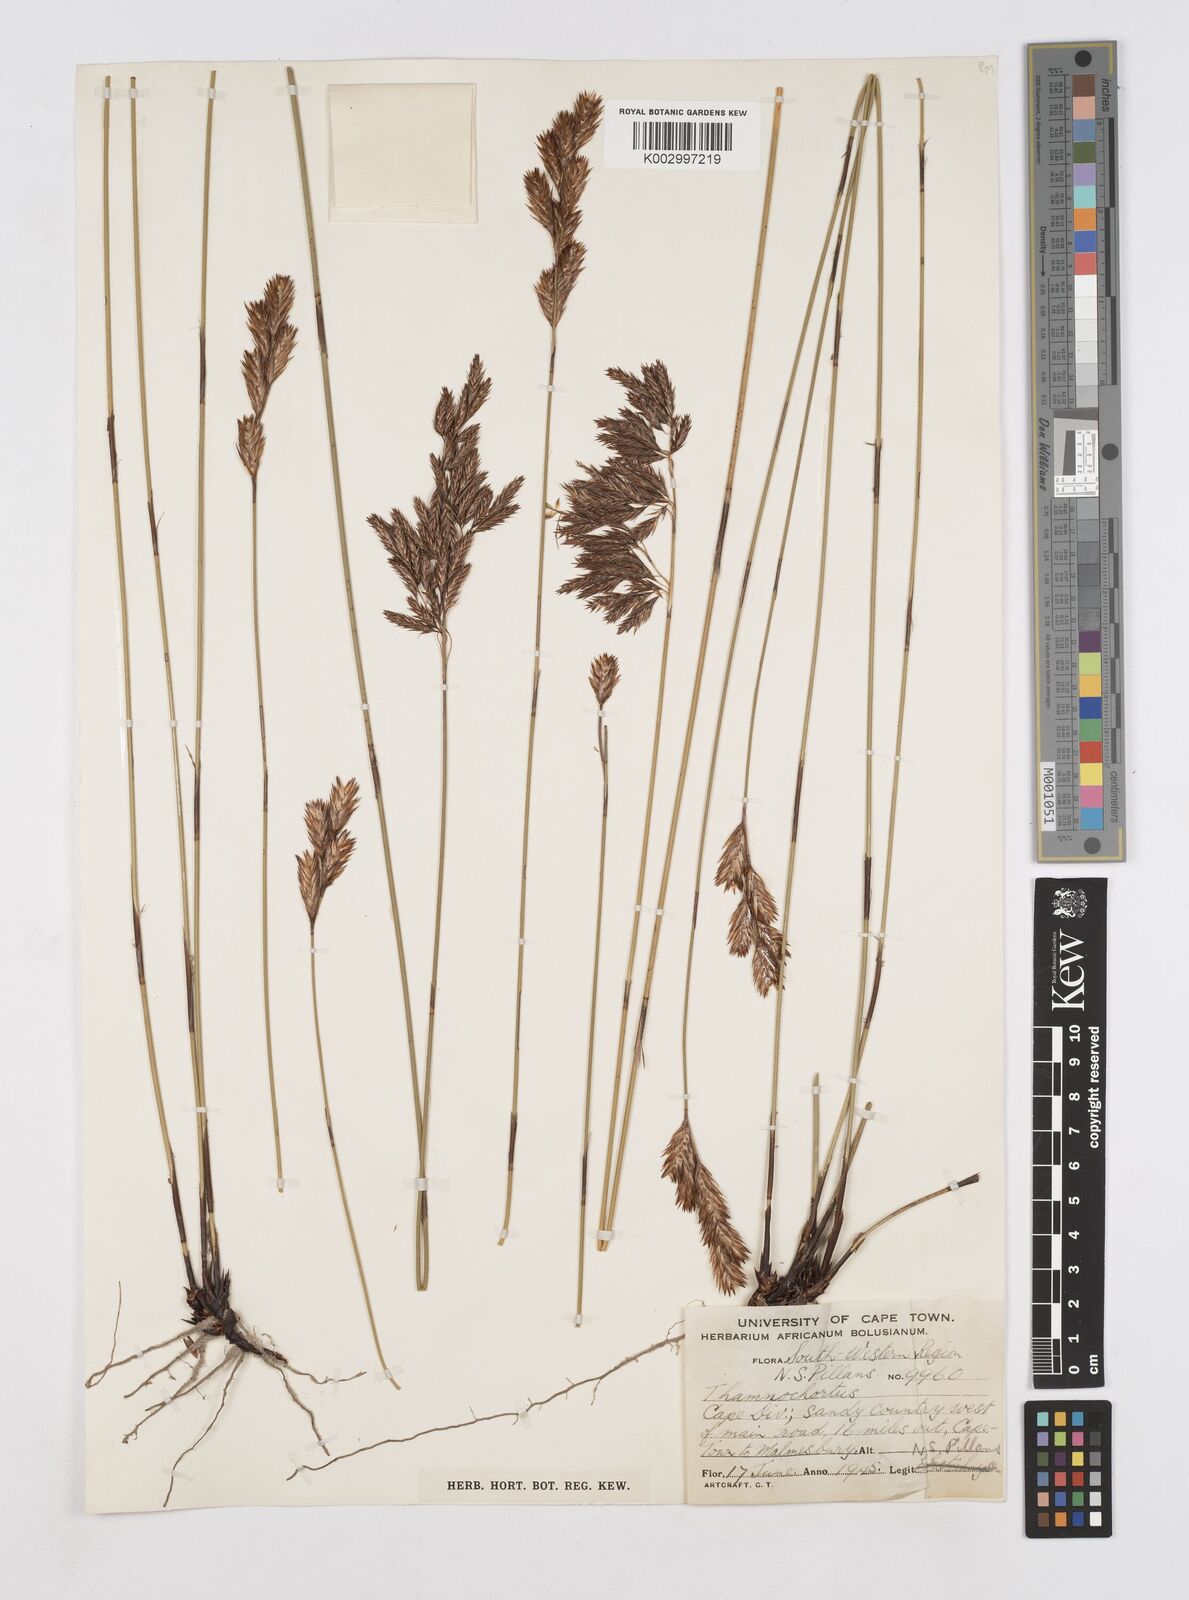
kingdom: Plantae
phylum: Tracheophyta
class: Liliopsida
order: Poales
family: Restionaceae
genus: Thamnochortus
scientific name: Thamnochortus punctatus
